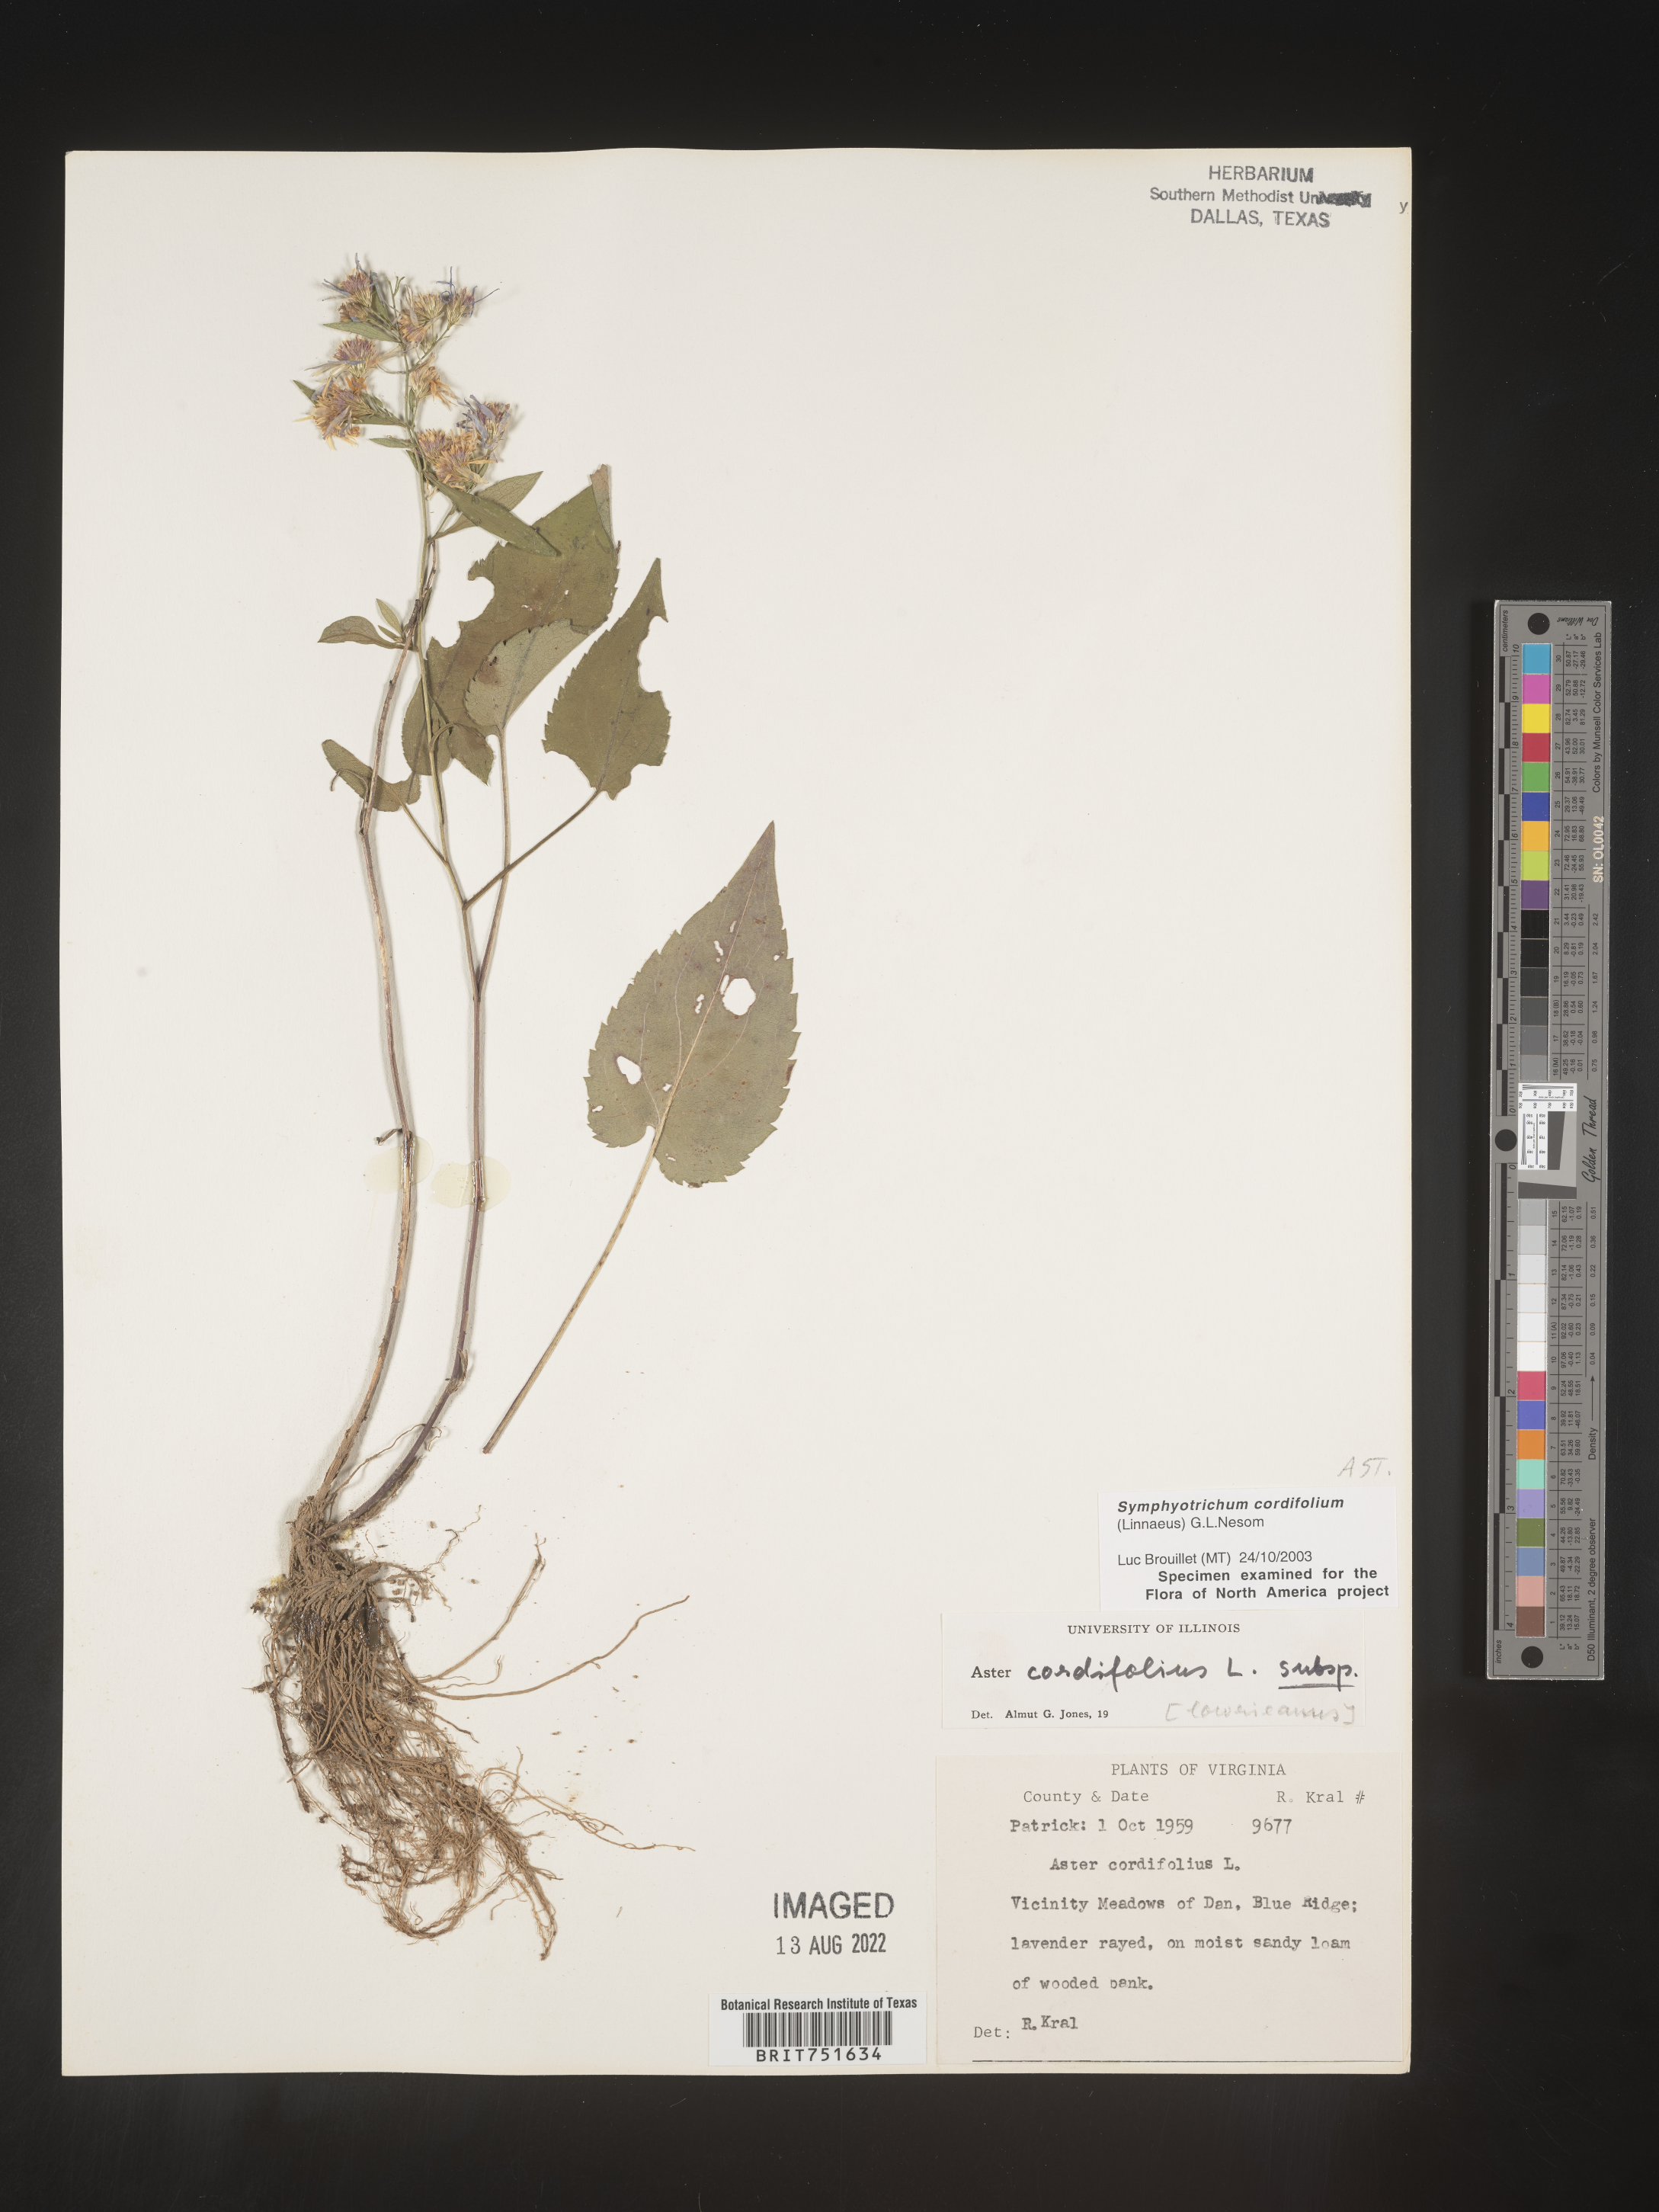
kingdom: Plantae
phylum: Tracheophyta
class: Magnoliopsida
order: Asterales
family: Asteraceae
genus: Symphyotrichum
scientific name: Symphyotrichum cordifolium
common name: Beeweed
